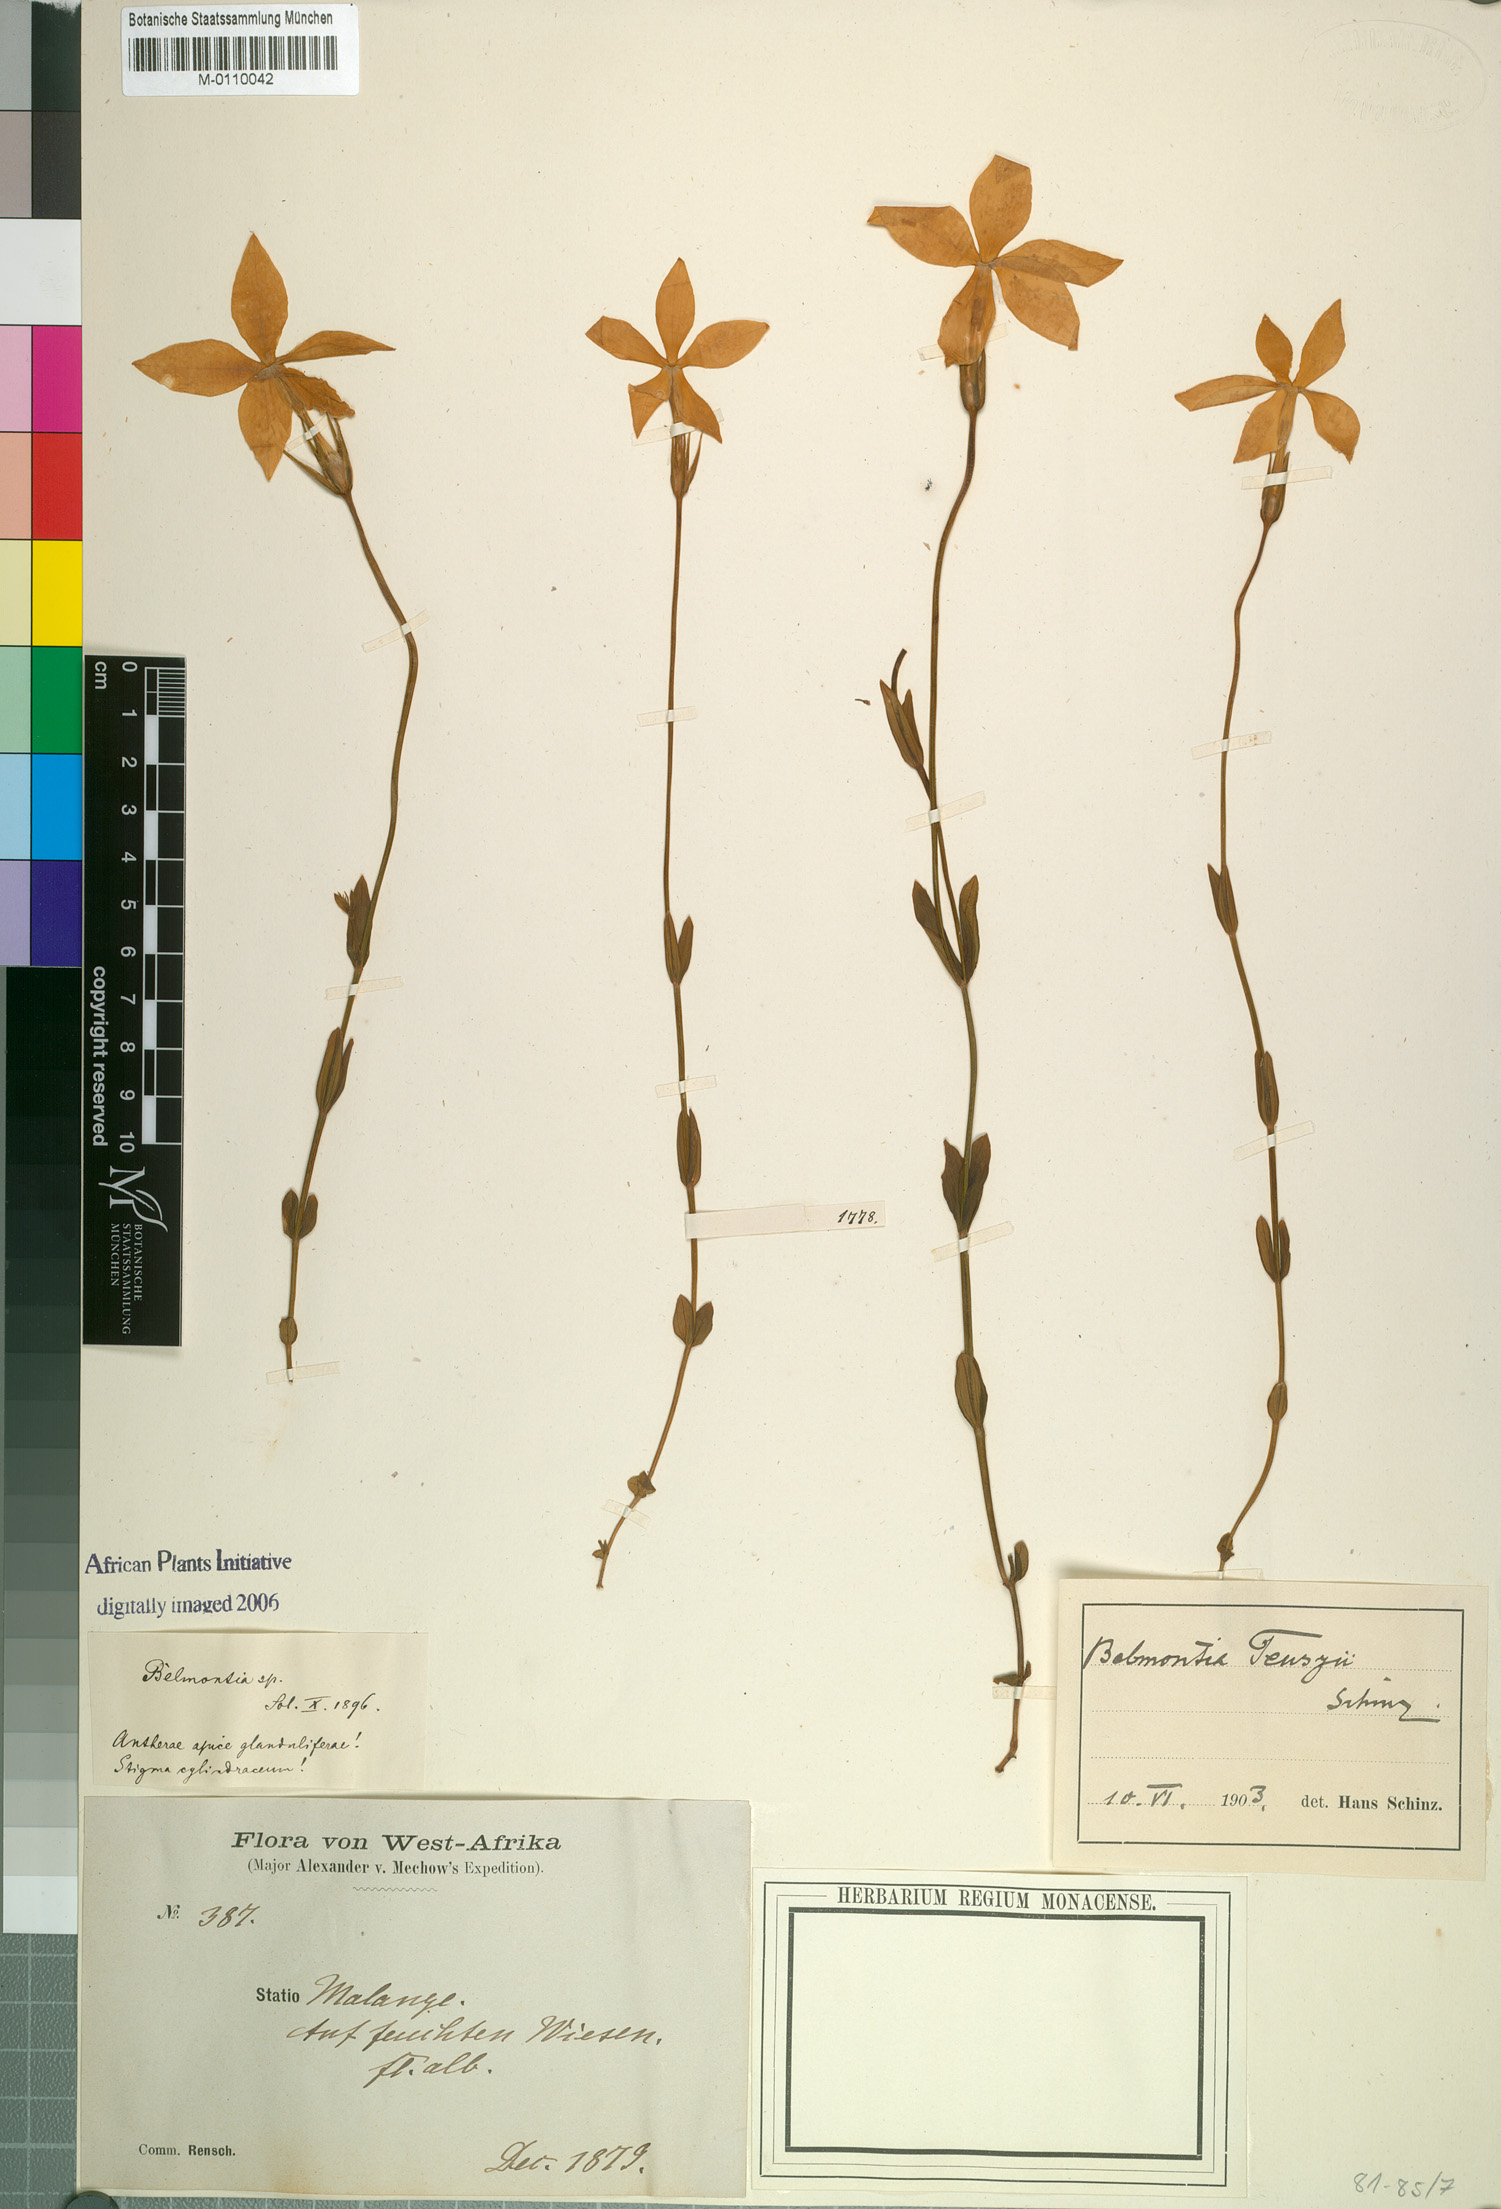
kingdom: Plantae
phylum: Tracheophyta
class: Magnoliopsida
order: Gentianales
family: Gentianaceae
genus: Exochaenium
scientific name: Exochaenium teuszii
